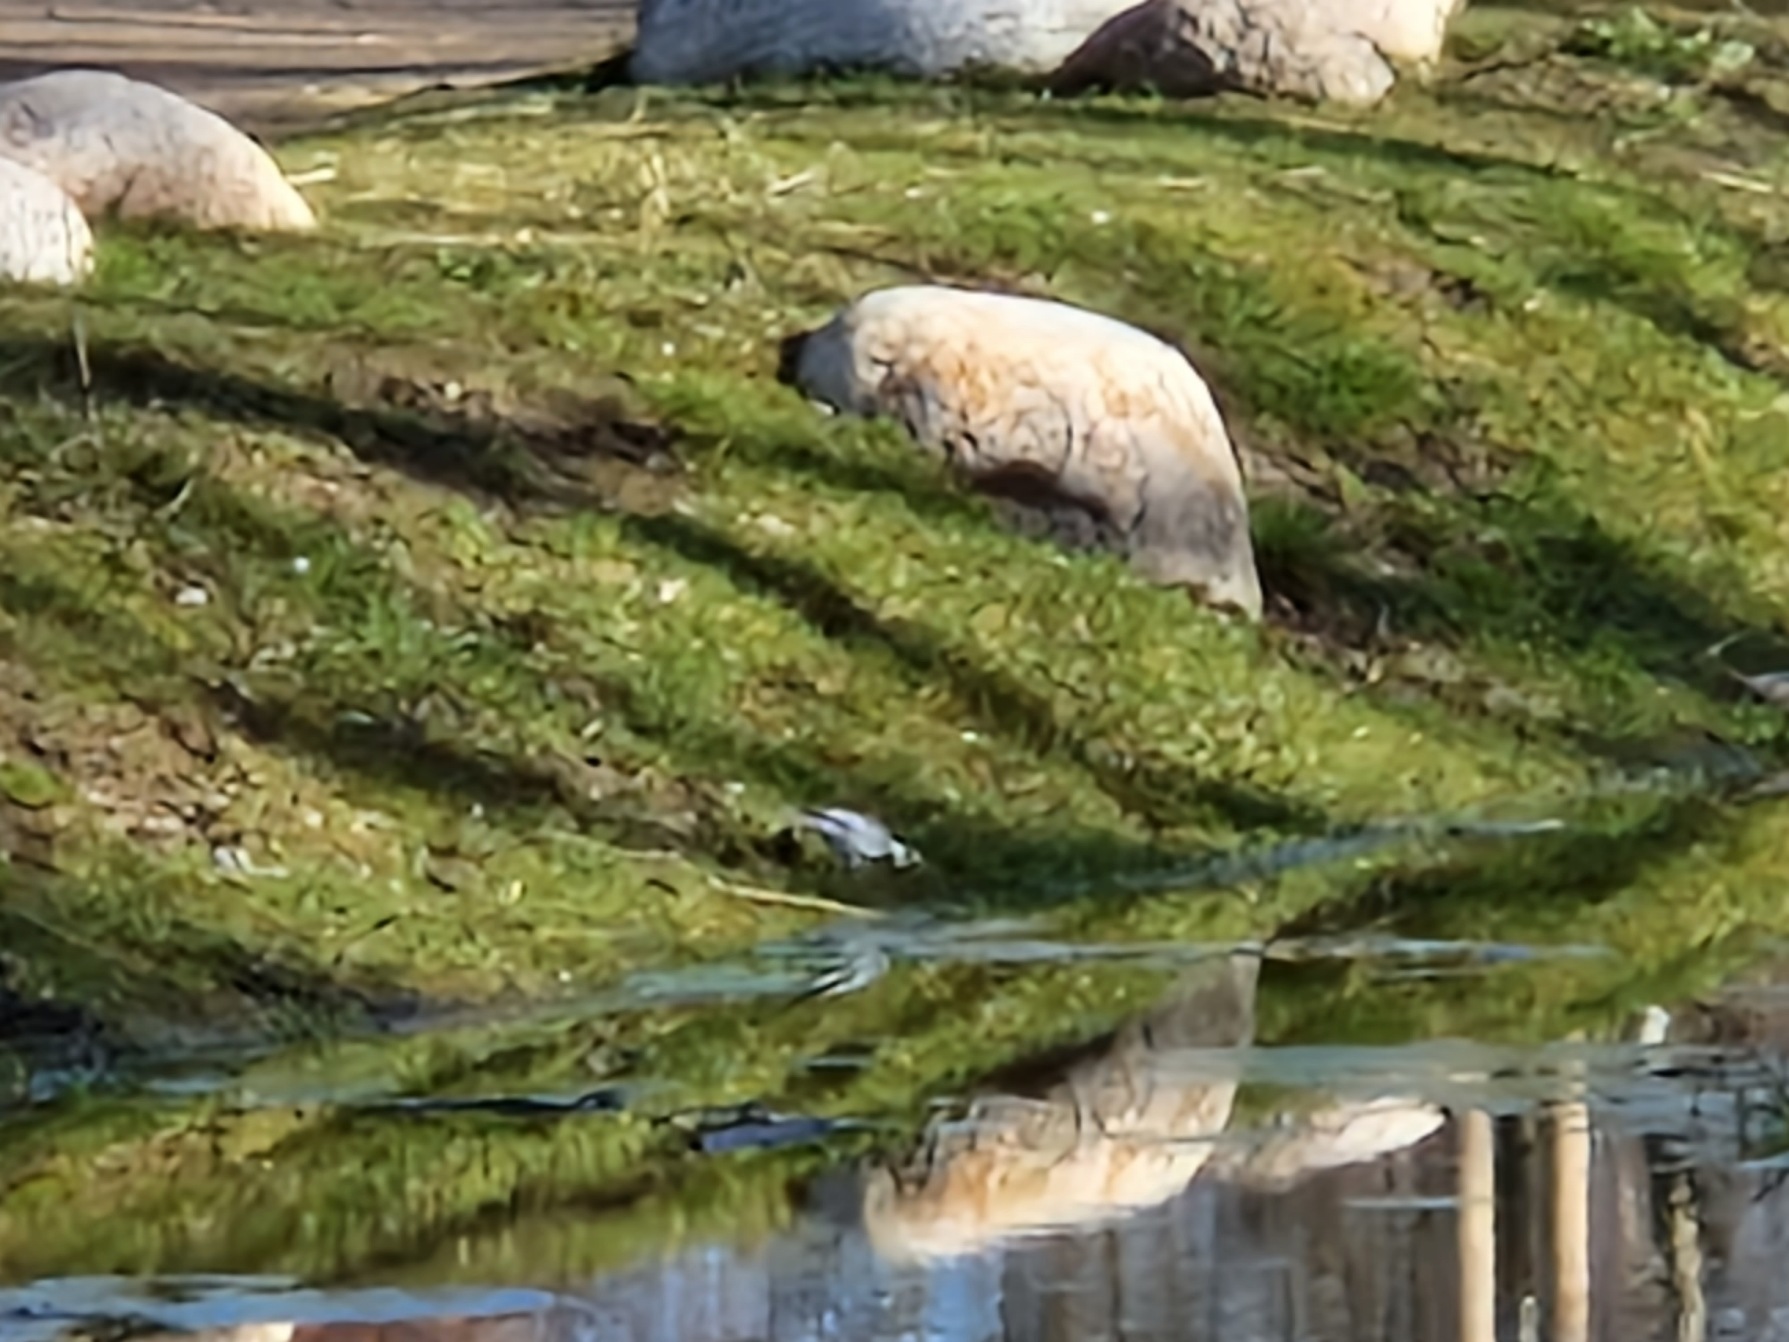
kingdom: Animalia
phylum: Chordata
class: Aves
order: Passeriformes
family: Motacillidae
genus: Motacilla
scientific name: Motacilla alba
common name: Hvid vipstjert
